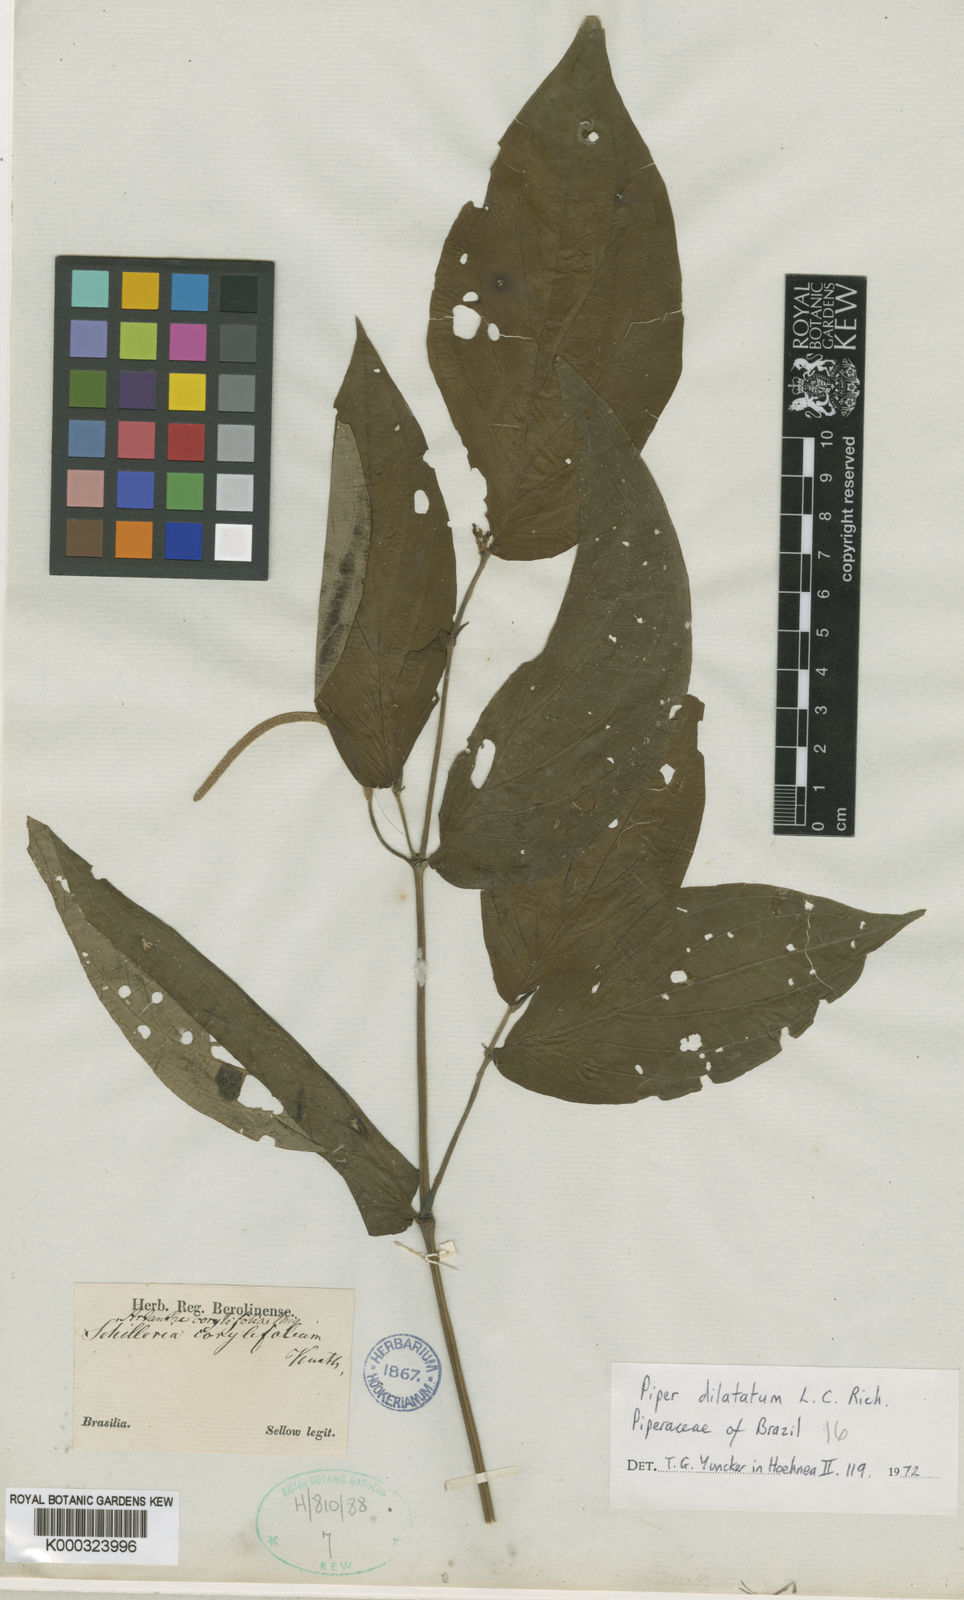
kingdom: Plantae
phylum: Tracheophyta
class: Magnoliopsida
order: Piperales
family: Piperaceae
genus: Piper
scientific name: Piper dilatatum
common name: Higuillo
